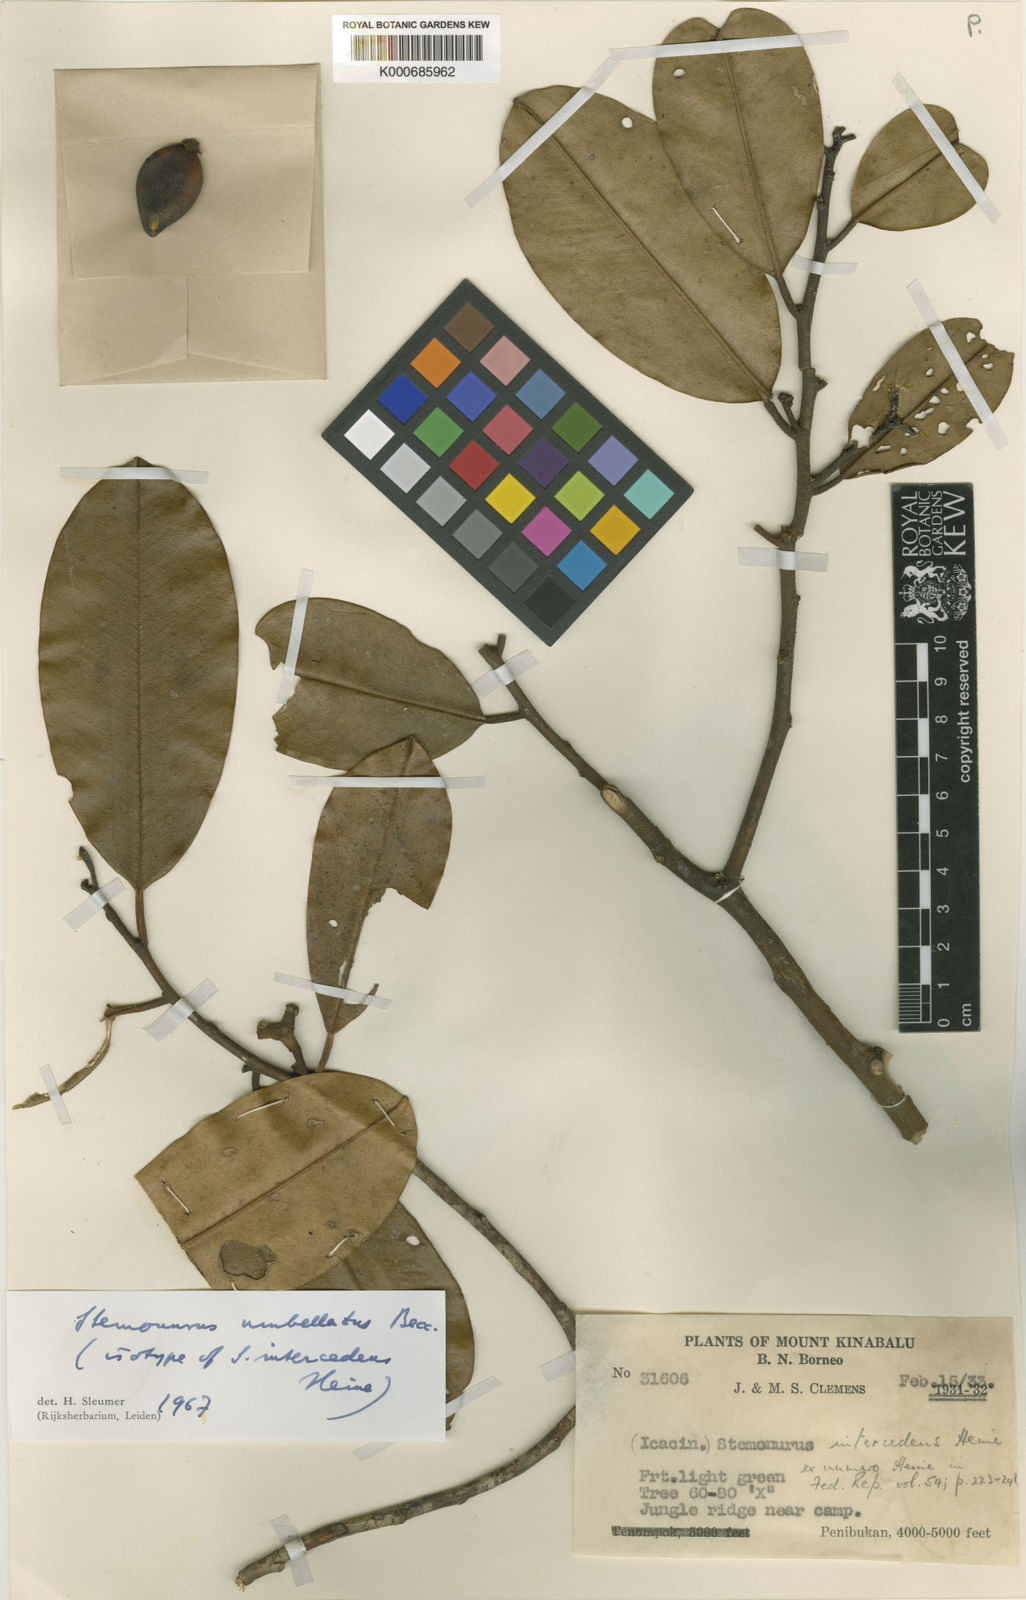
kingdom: Plantae
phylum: Tracheophyta
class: Magnoliopsida
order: Cardiopteridales
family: Stemonuraceae
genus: Stemonurus
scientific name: Stemonurus umbellatus
